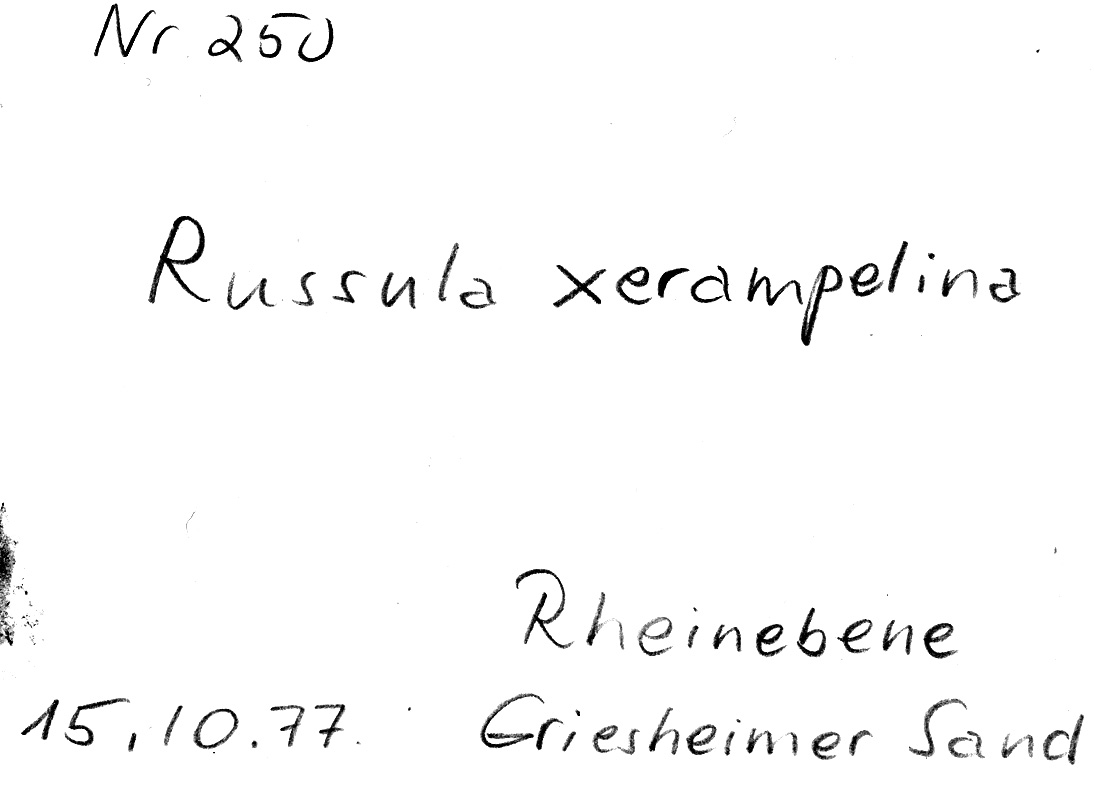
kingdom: Fungi
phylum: Basidiomycota
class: Agaricomycetes
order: Russulales
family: Russulaceae
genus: Russula
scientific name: Russula xerampelina
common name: Crab brittlegill
